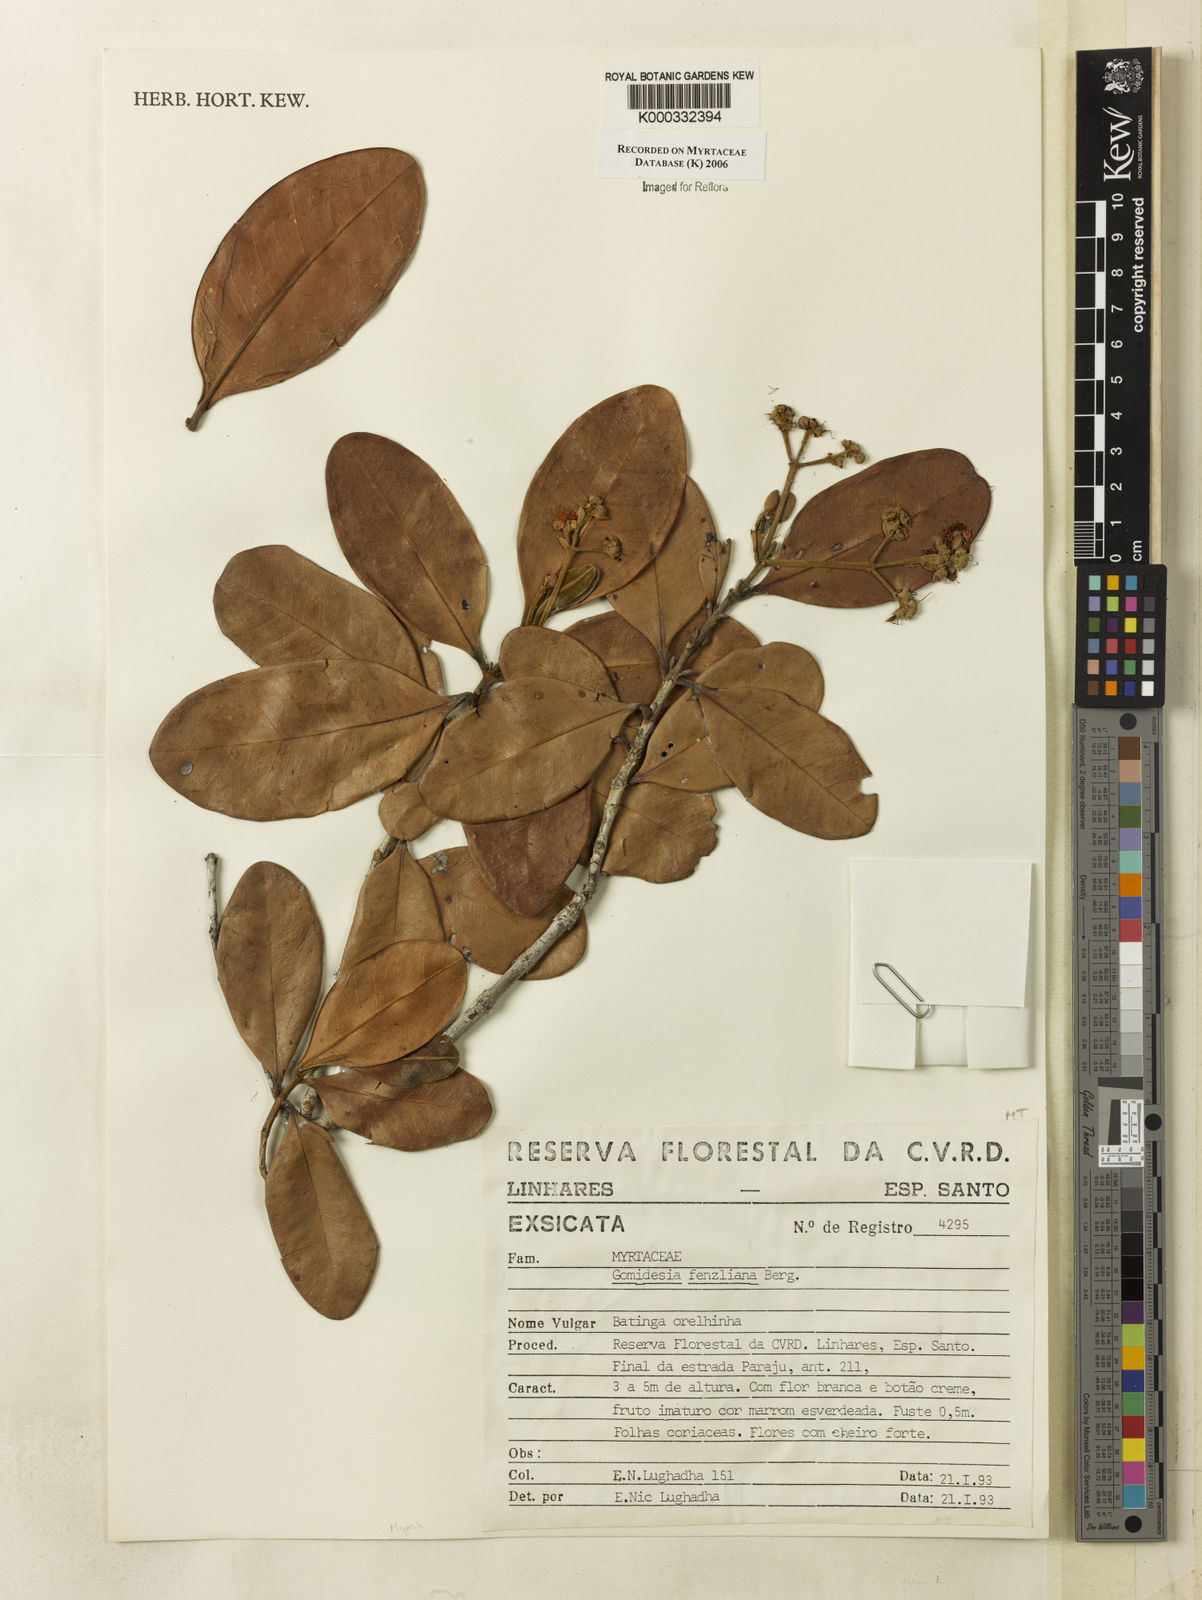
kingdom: Plantae
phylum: Tracheophyta
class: Magnoliopsida
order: Myrtales
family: Myrtaceae
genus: Myrcia
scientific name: Myrcia ilheosensis
